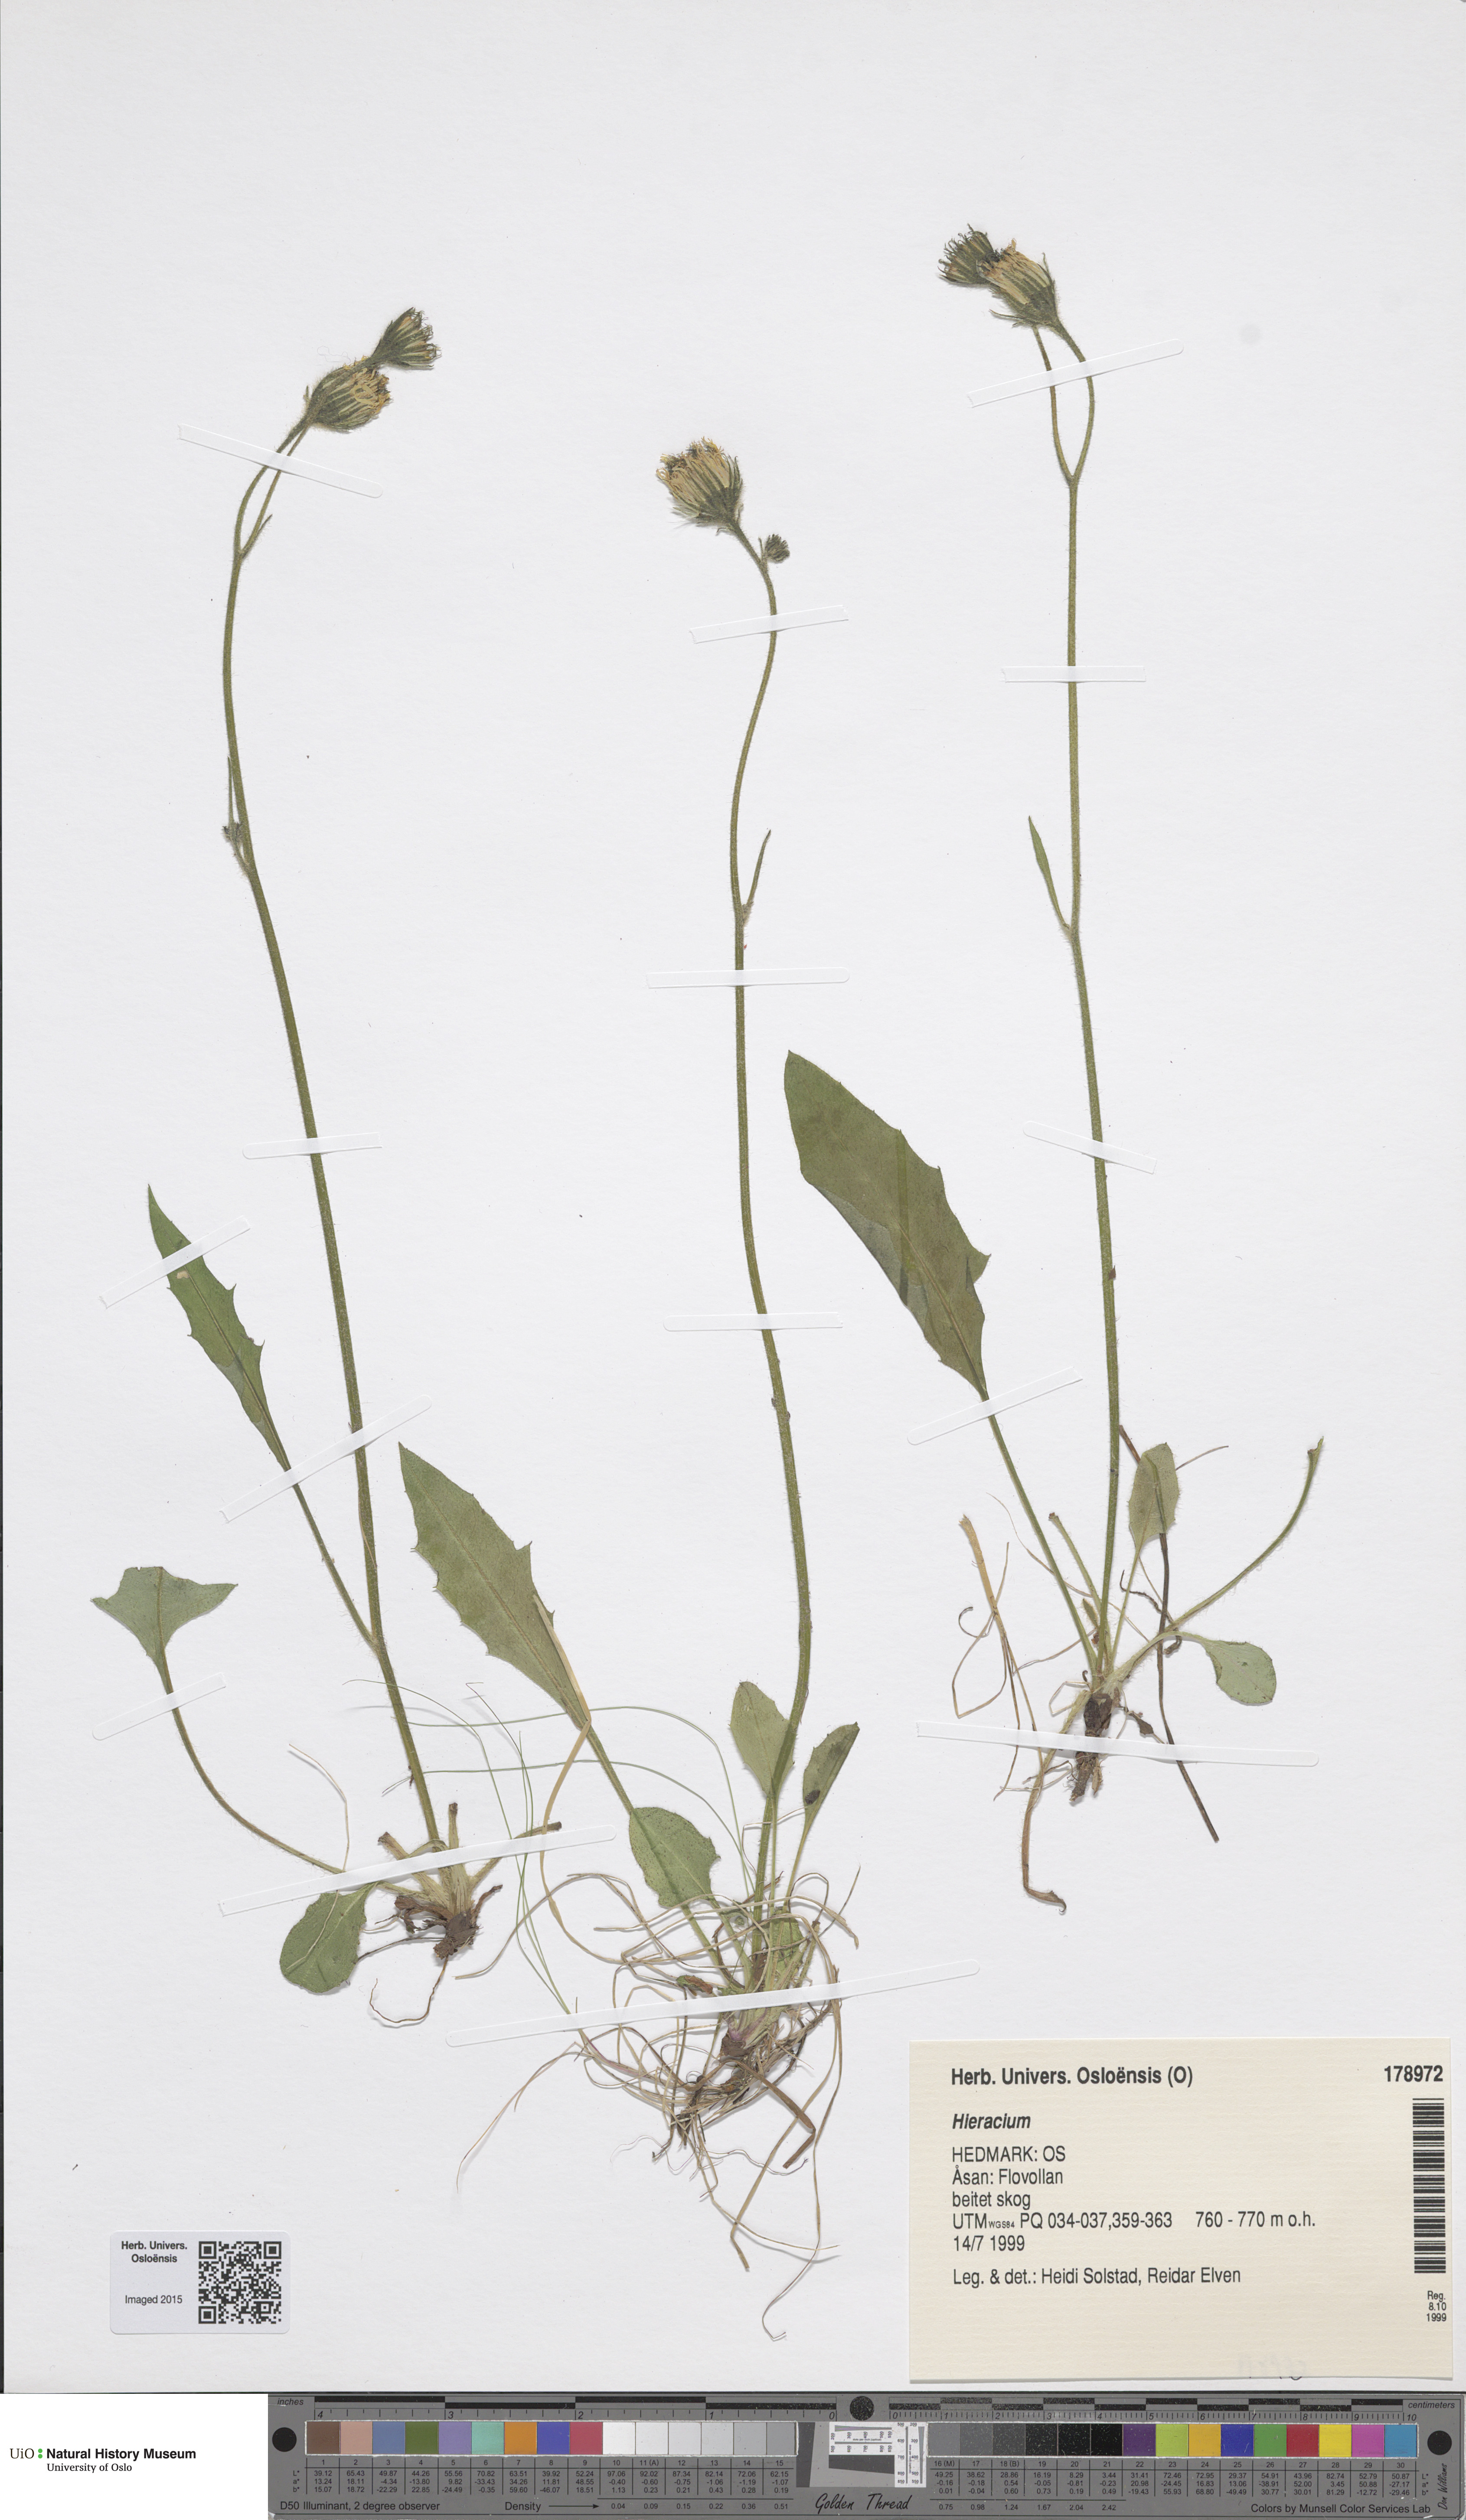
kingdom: Plantae
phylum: Tracheophyta
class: Magnoliopsida
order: Asterales
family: Asteraceae
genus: Hieracium
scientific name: Hieracium
